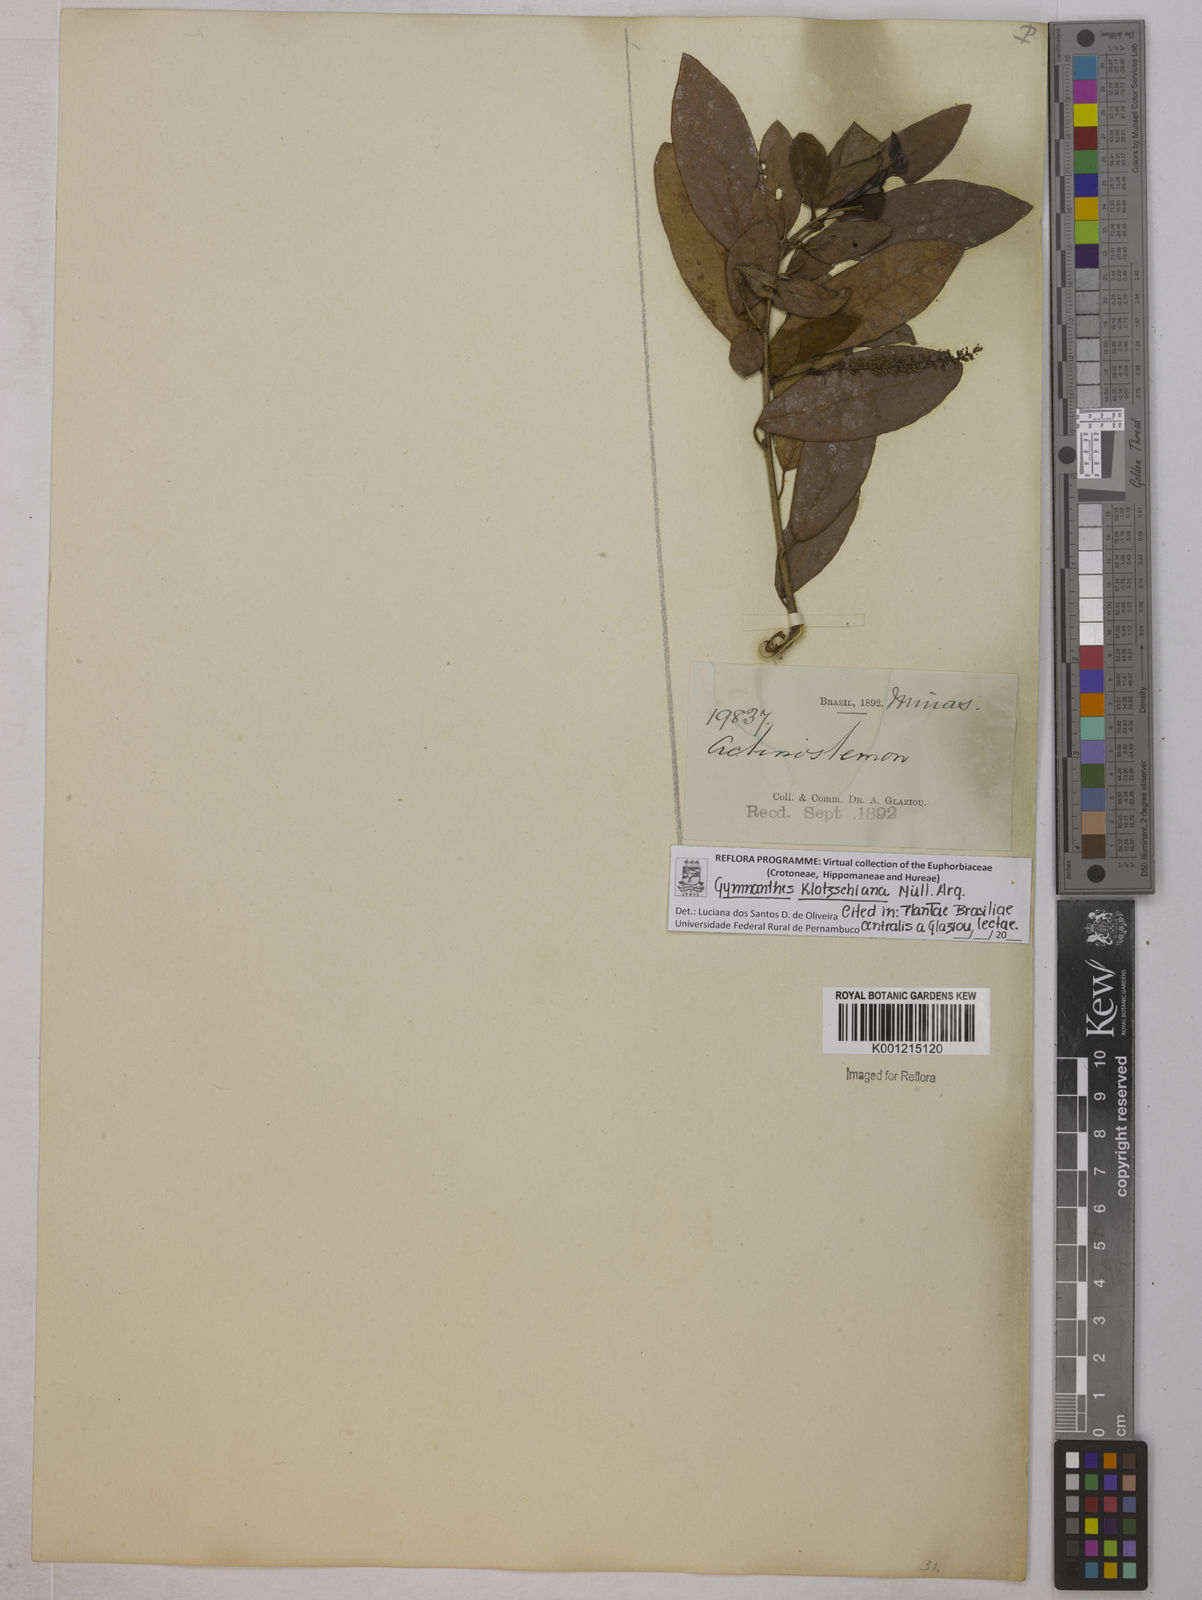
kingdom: Plantae
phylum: Tracheophyta
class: Magnoliopsida
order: Malpighiales
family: Euphorbiaceae
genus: Gymnanthes
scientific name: Gymnanthes
